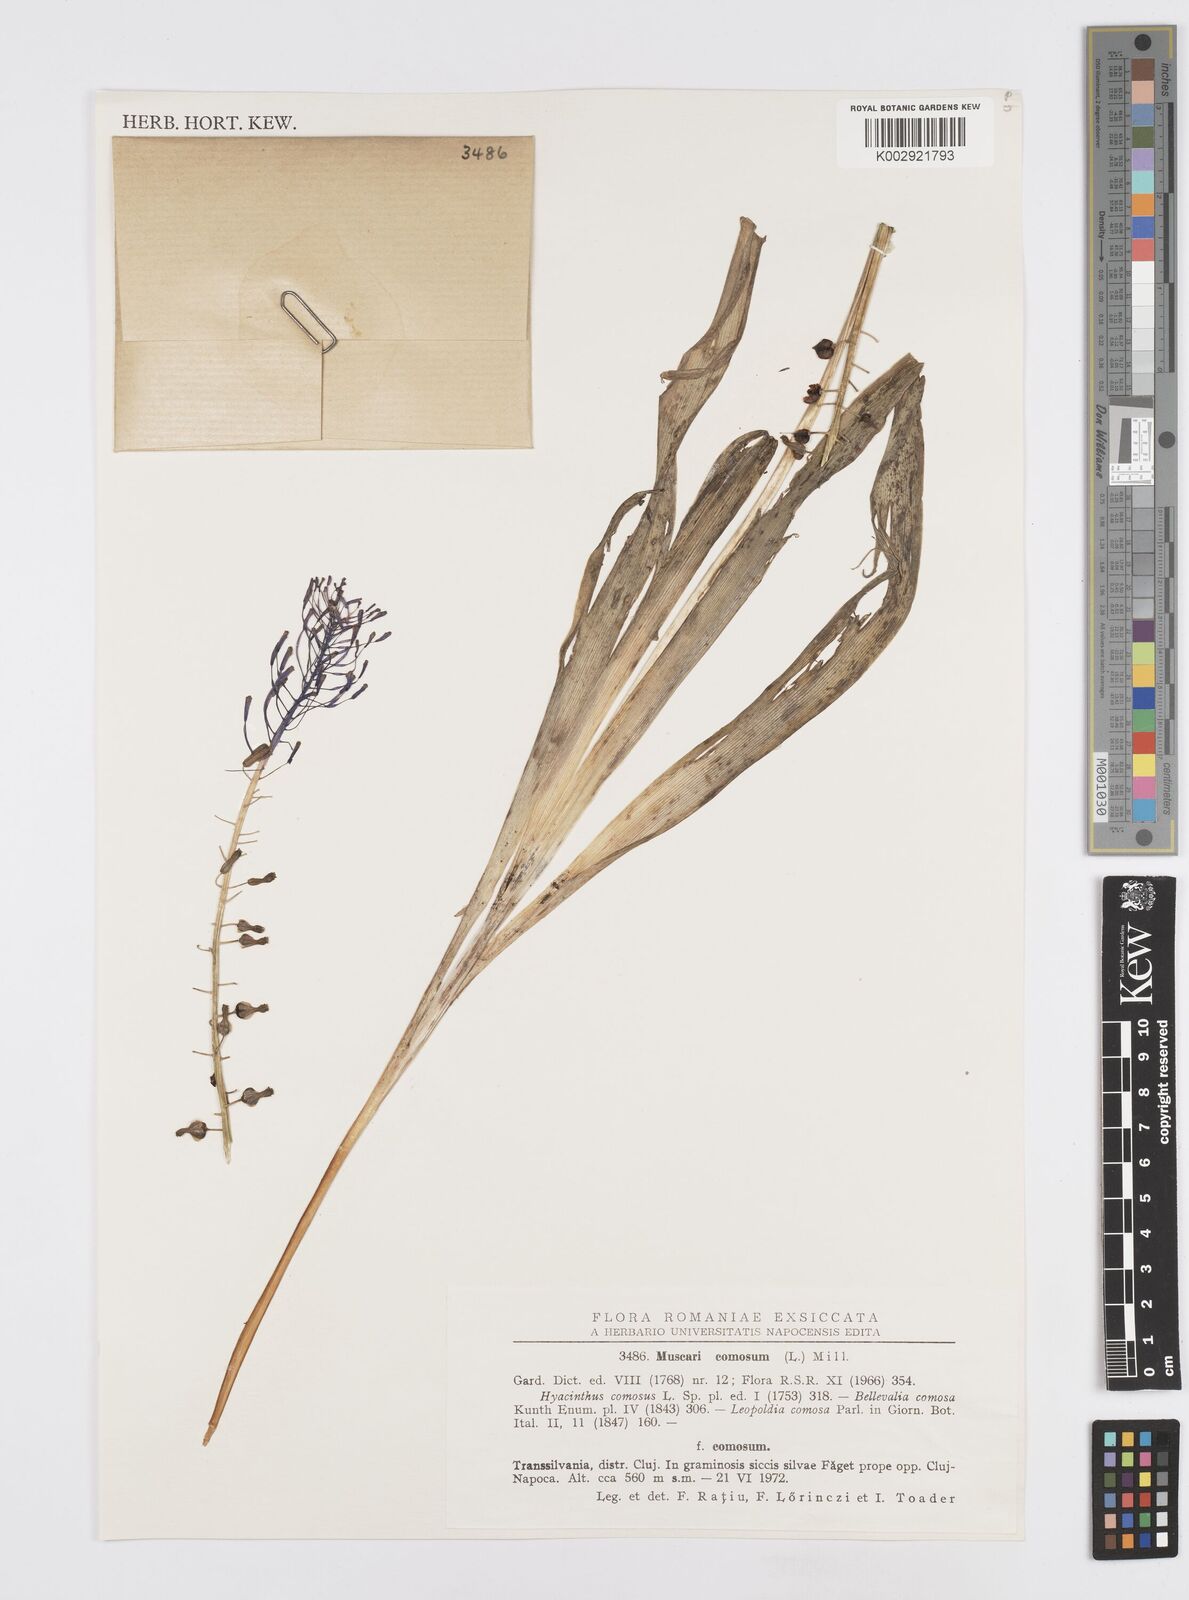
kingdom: Plantae
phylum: Tracheophyta
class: Liliopsida
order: Asparagales
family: Asparagaceae
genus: Muscari
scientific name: Muscari comosum
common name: Tassel hyacinth
